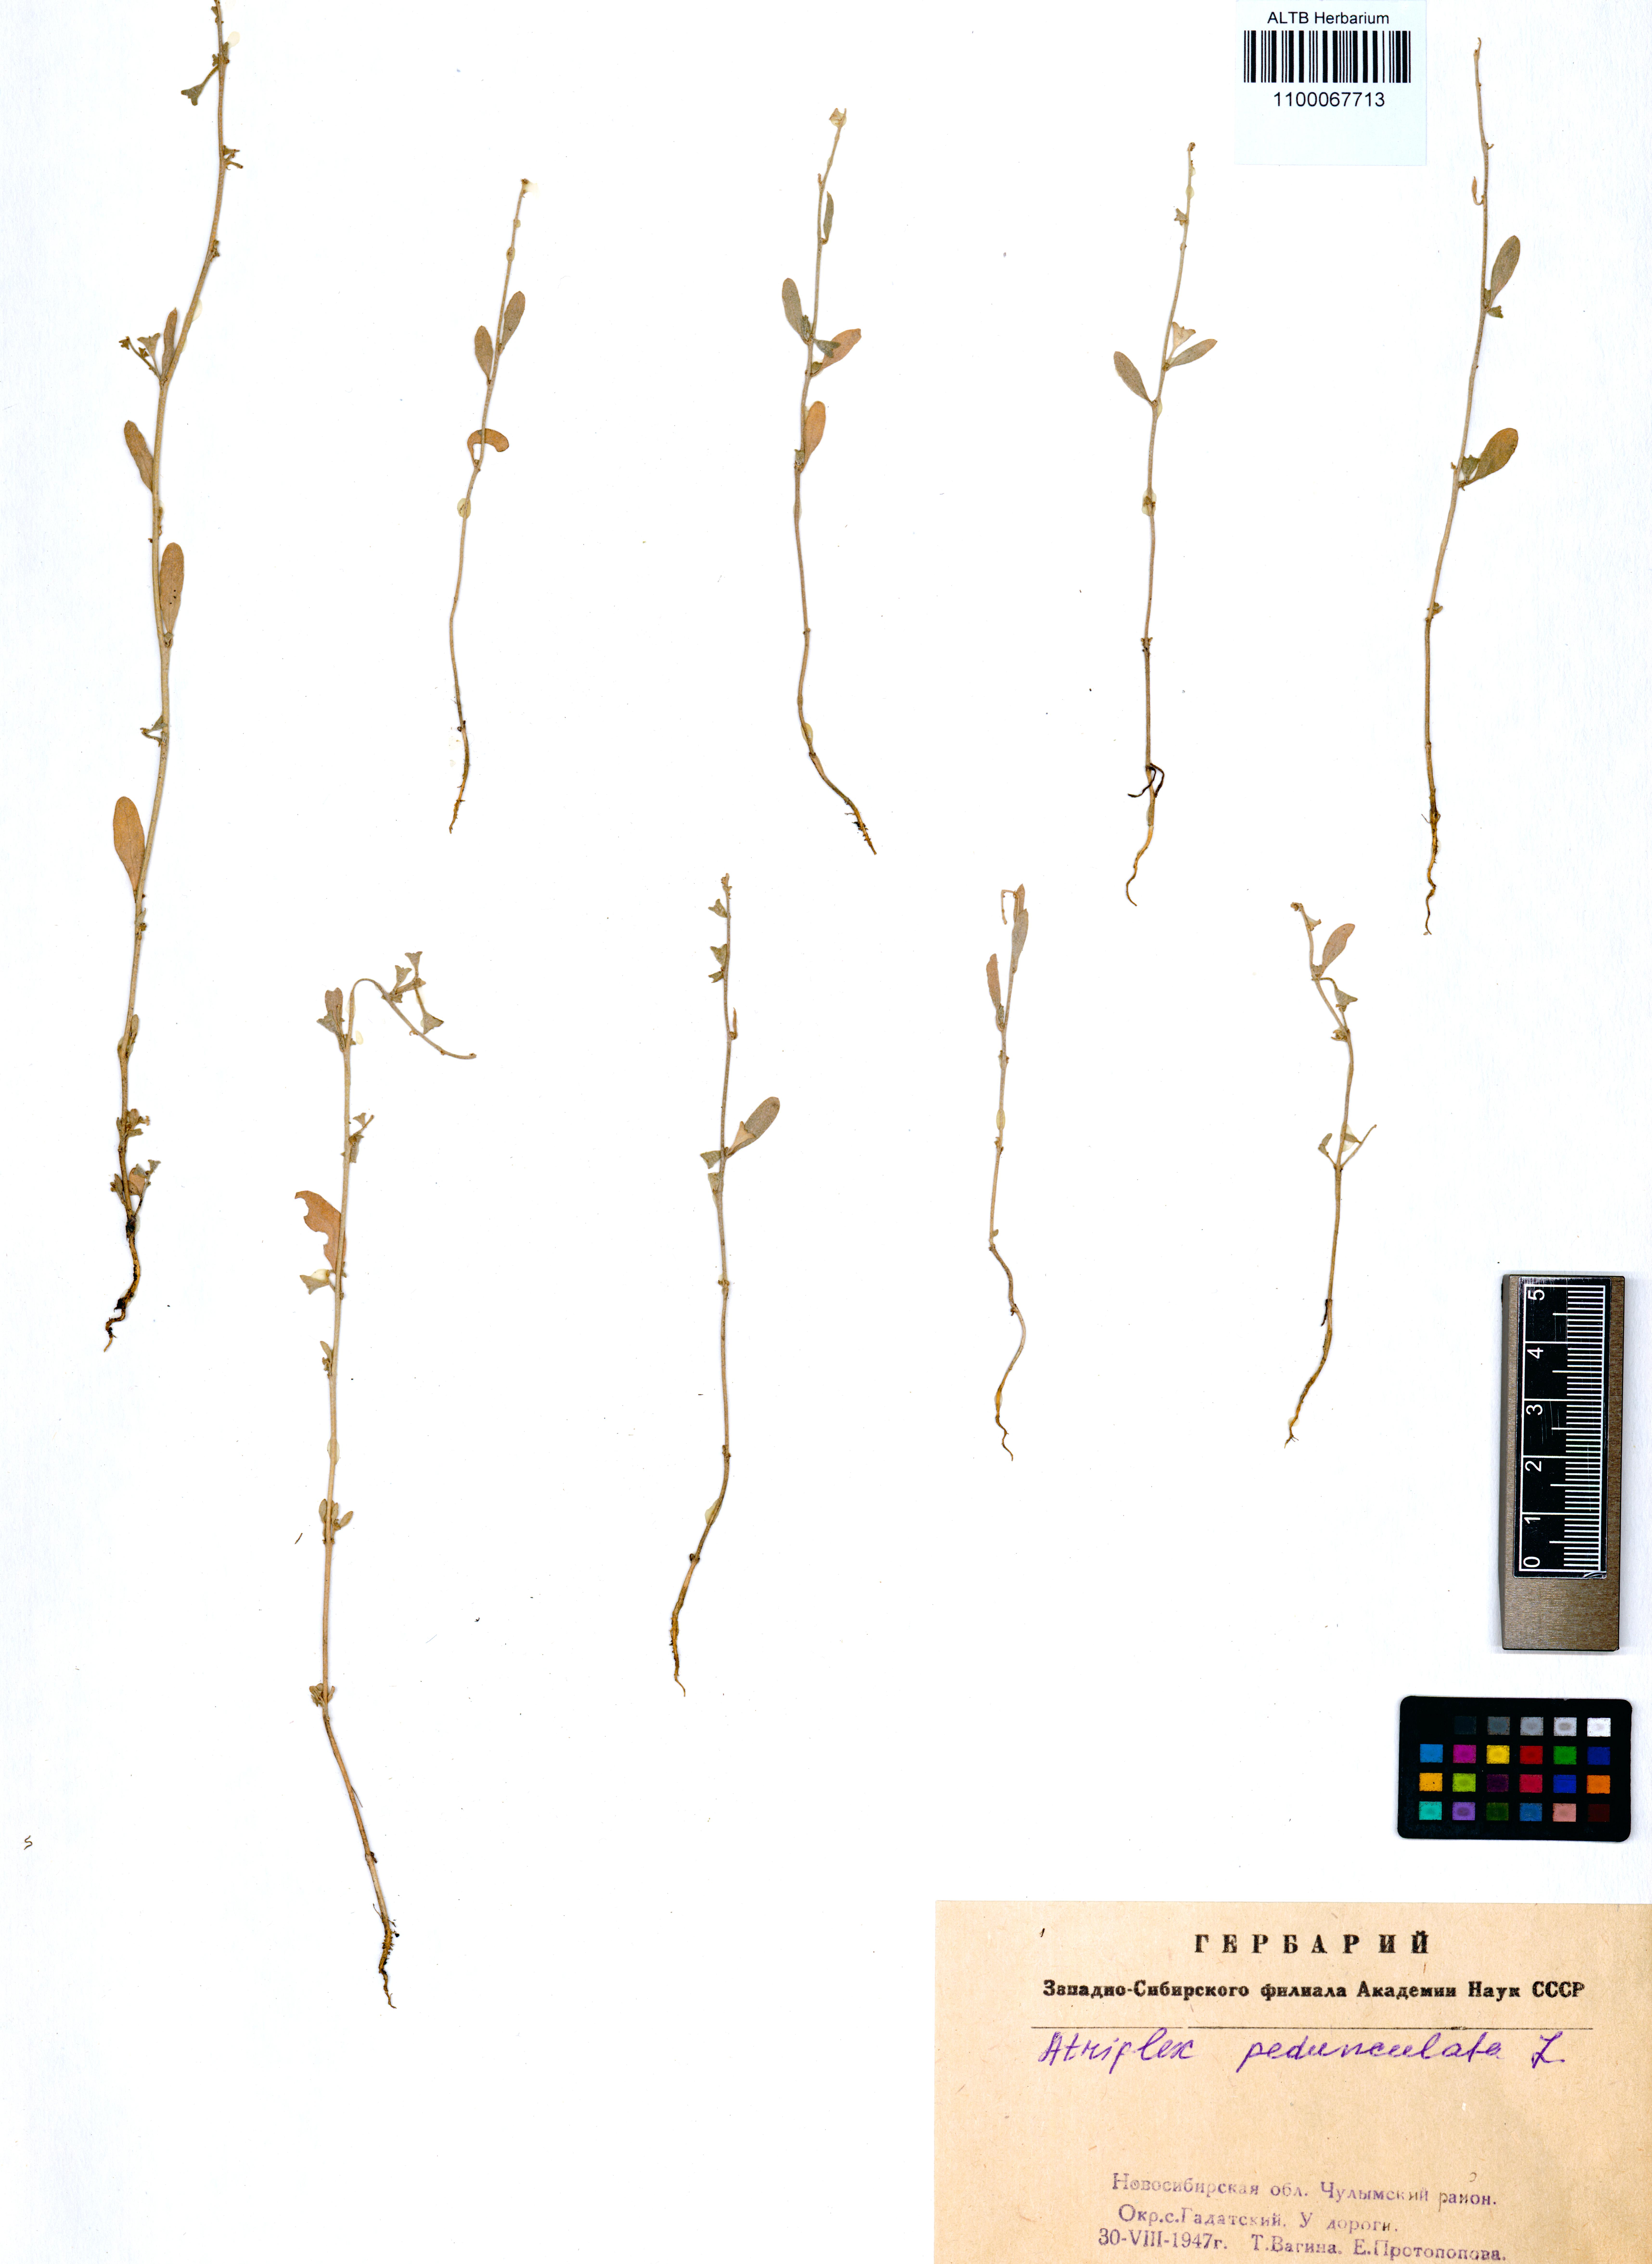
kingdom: Plantae
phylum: Tracheophyta
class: Magnoliopsida
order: Caryophyllales
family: Amaranthaceae
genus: Halimione
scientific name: Halimione pedunculata
